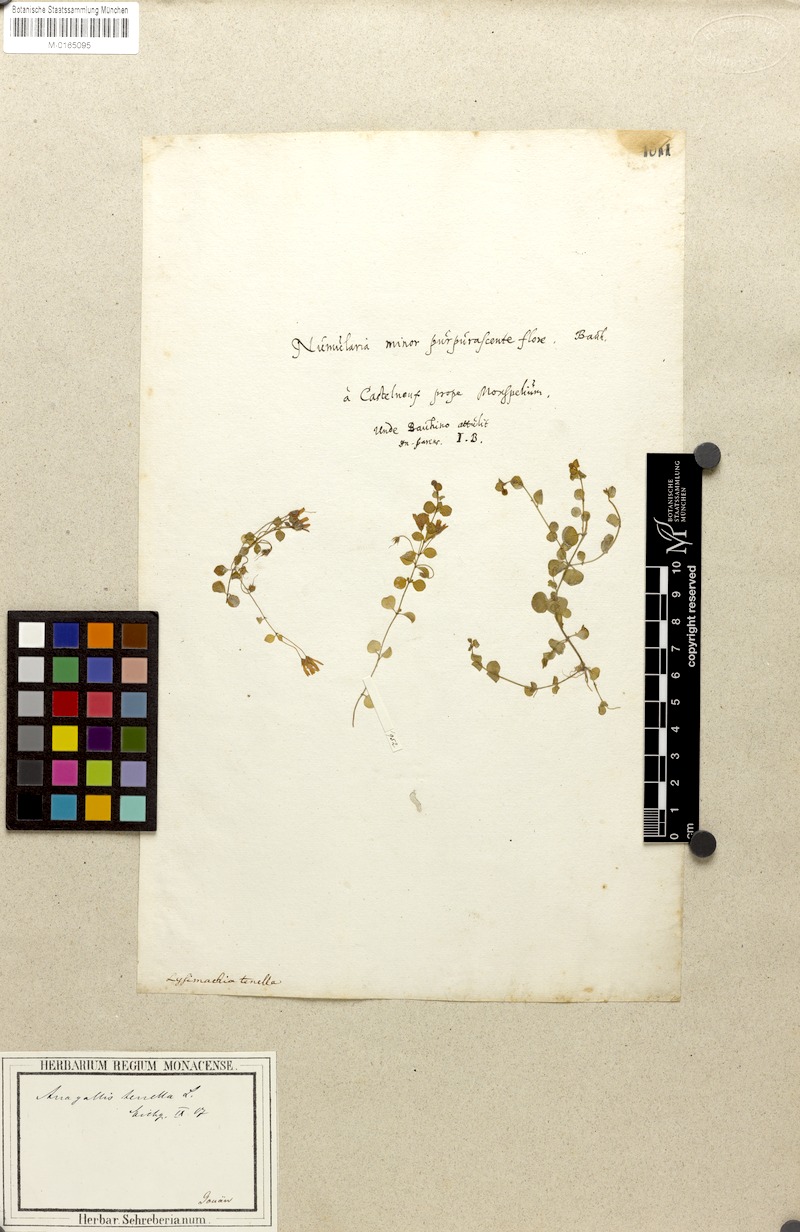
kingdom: Plantae
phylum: Tracheophyta
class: Magnoliopsida
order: Ericales
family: Primulaceae
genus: Lysimachia
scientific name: Lysimachia tenella
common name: European bog pimpernel
